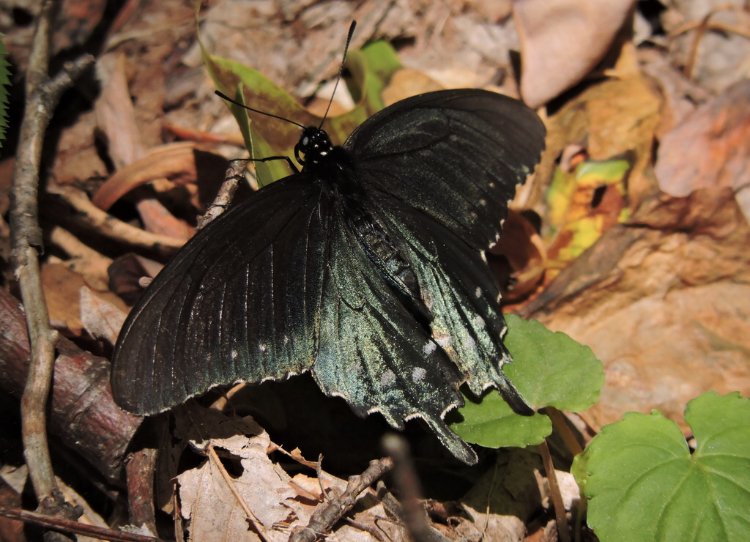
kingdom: Animalia
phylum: Arthropoda
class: Insecta
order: Lepidoptera
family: Papilionidae
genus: Battus
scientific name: Battus philenor
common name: Pipevine Swallowtail
